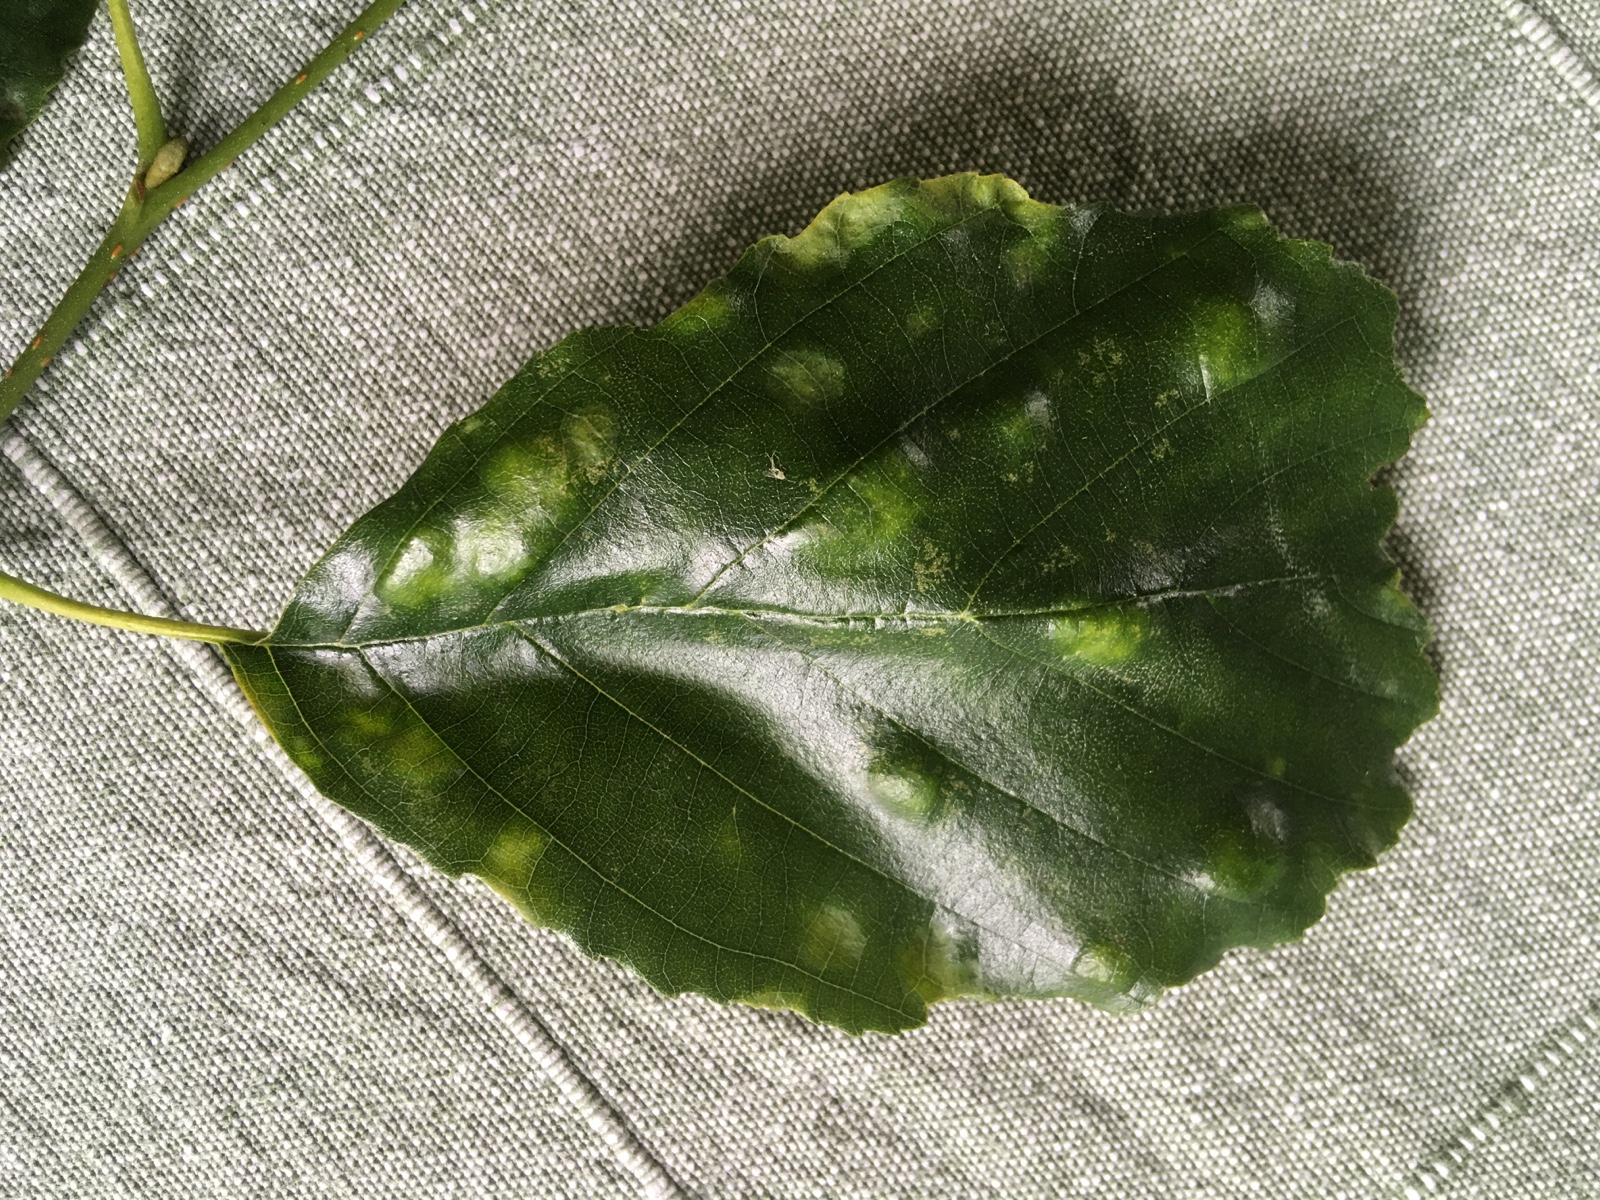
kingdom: Fungi
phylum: Ascomycota
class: Taphrinomycetes
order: Taphrinales
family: Taphrinaceae
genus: Taphrina
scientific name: Taphrina tosquinetii
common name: Alder wrinkle
